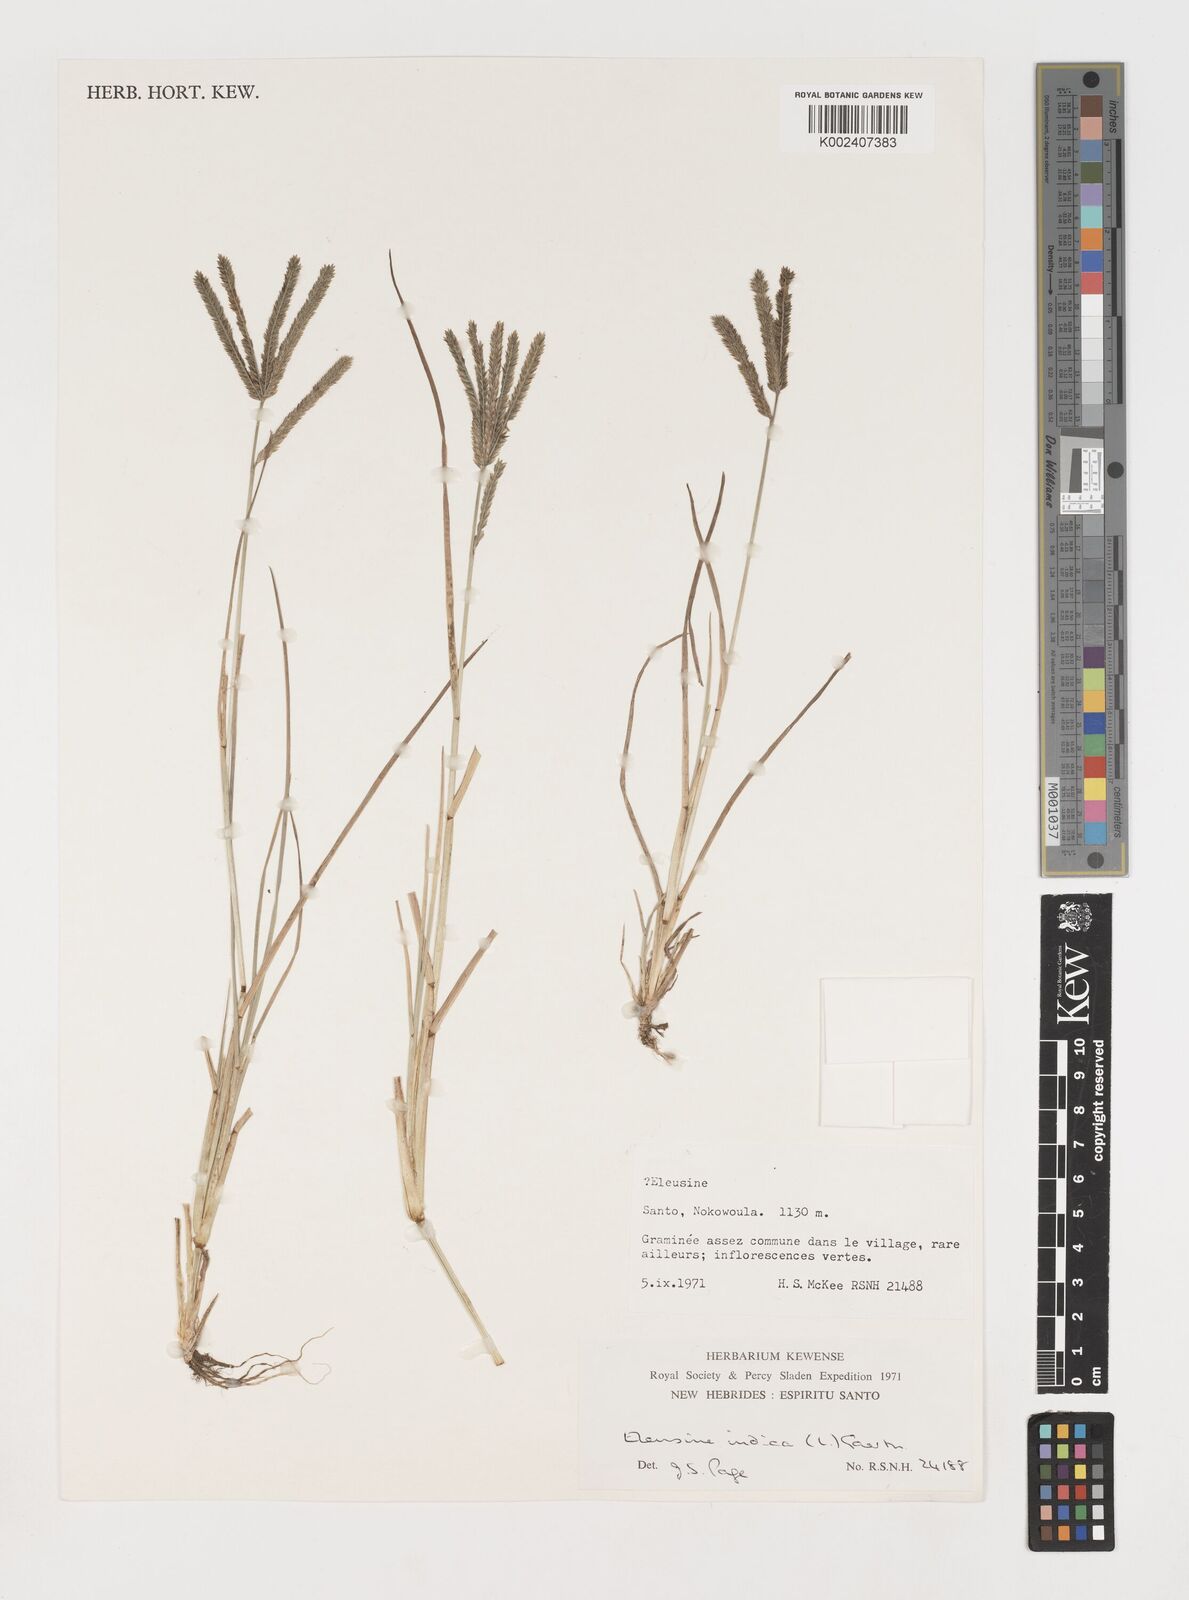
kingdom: Plantae
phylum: Tracheophyta
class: Liliopsida
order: Poales
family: Poaceae
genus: Eleusine
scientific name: Eleusine indica
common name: Yard-grass
